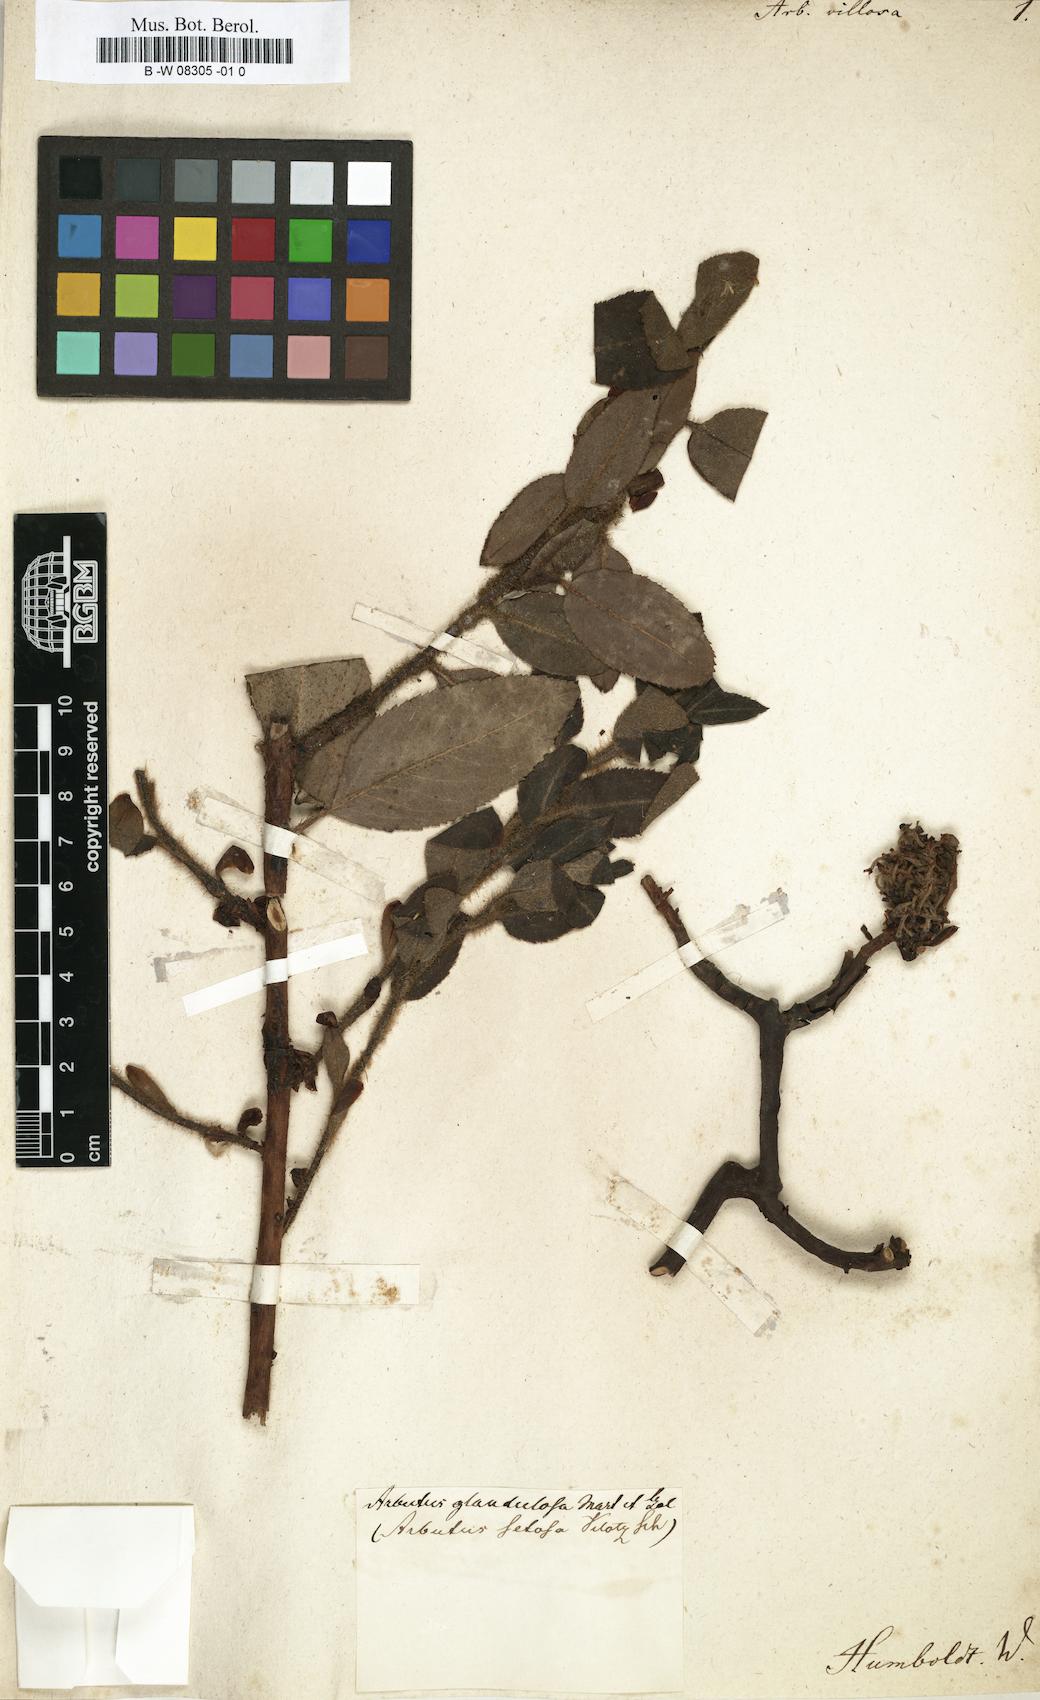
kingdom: Plantae
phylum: Tracheophyta
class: Magnoliopsida
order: Ericales
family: Ericaceae
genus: Arbutus
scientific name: Arbutus xalapensis
